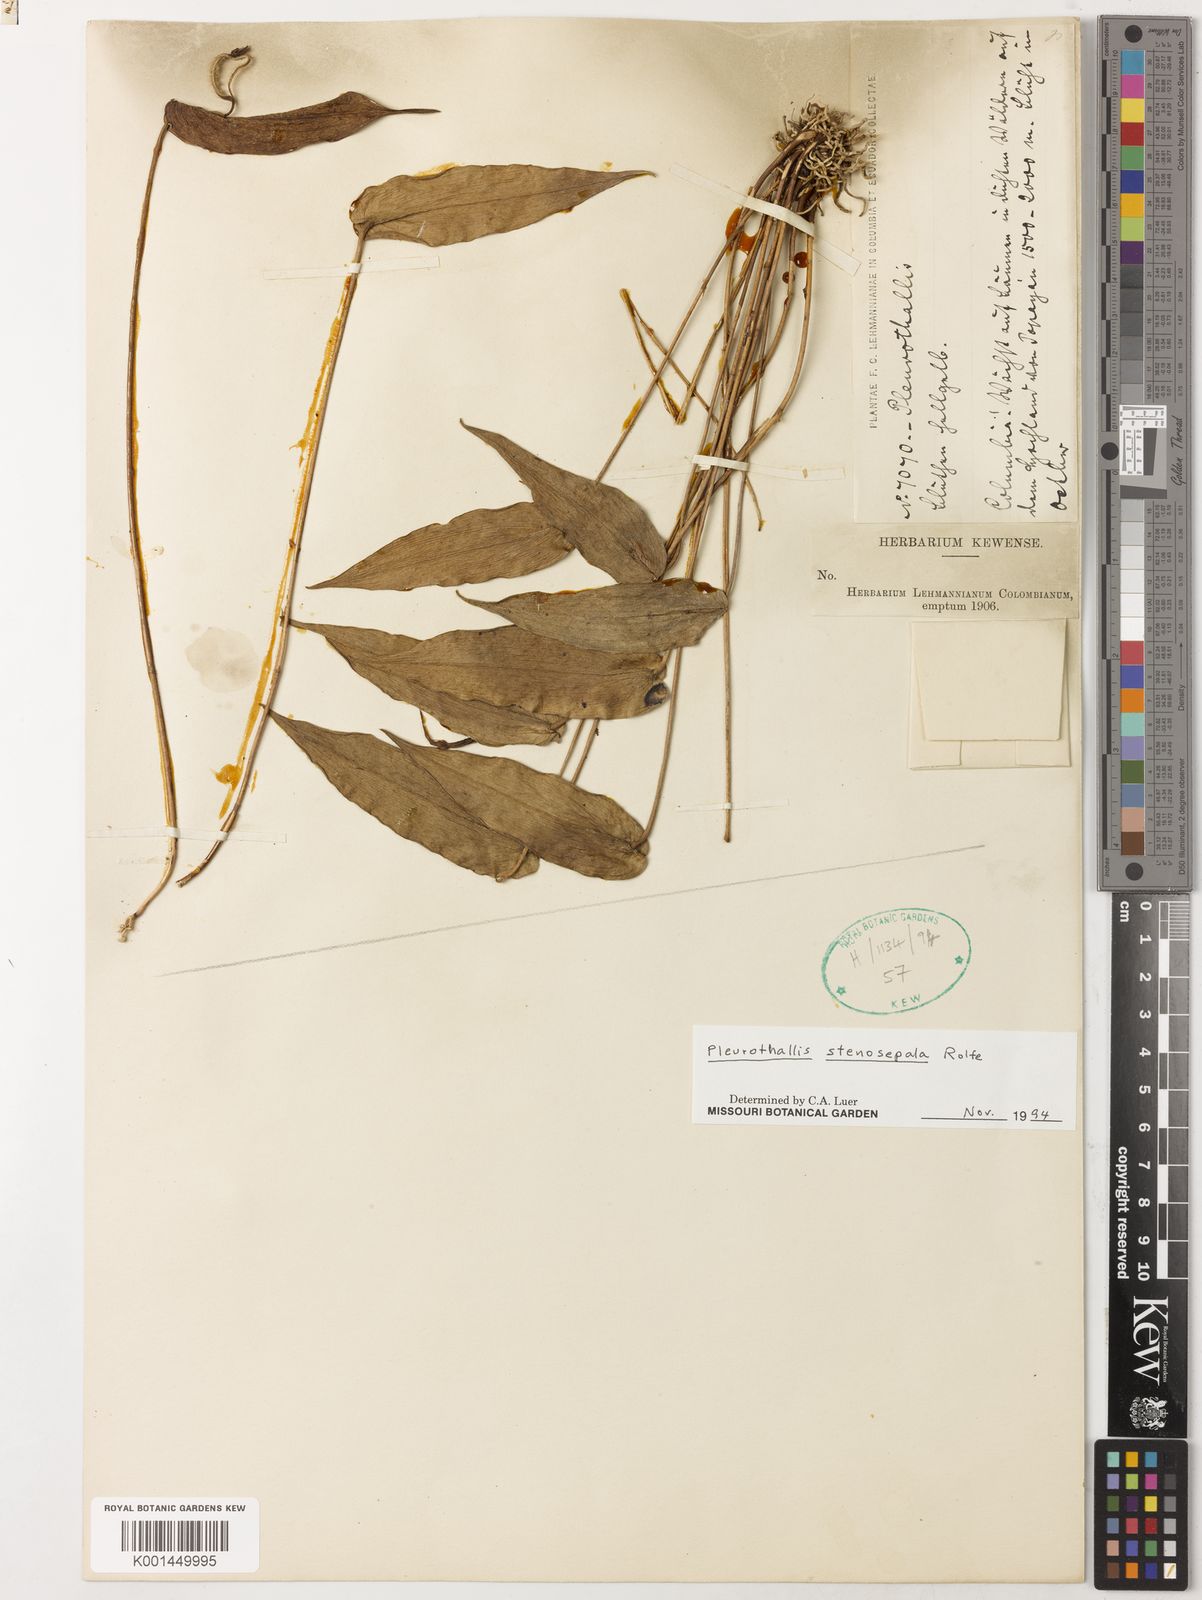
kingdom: Plantae
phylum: Tracheophyta
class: Liliopsida
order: Asparagales
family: Orchidaceae
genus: Pleurothallis
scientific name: Pleurothallis microcardia
